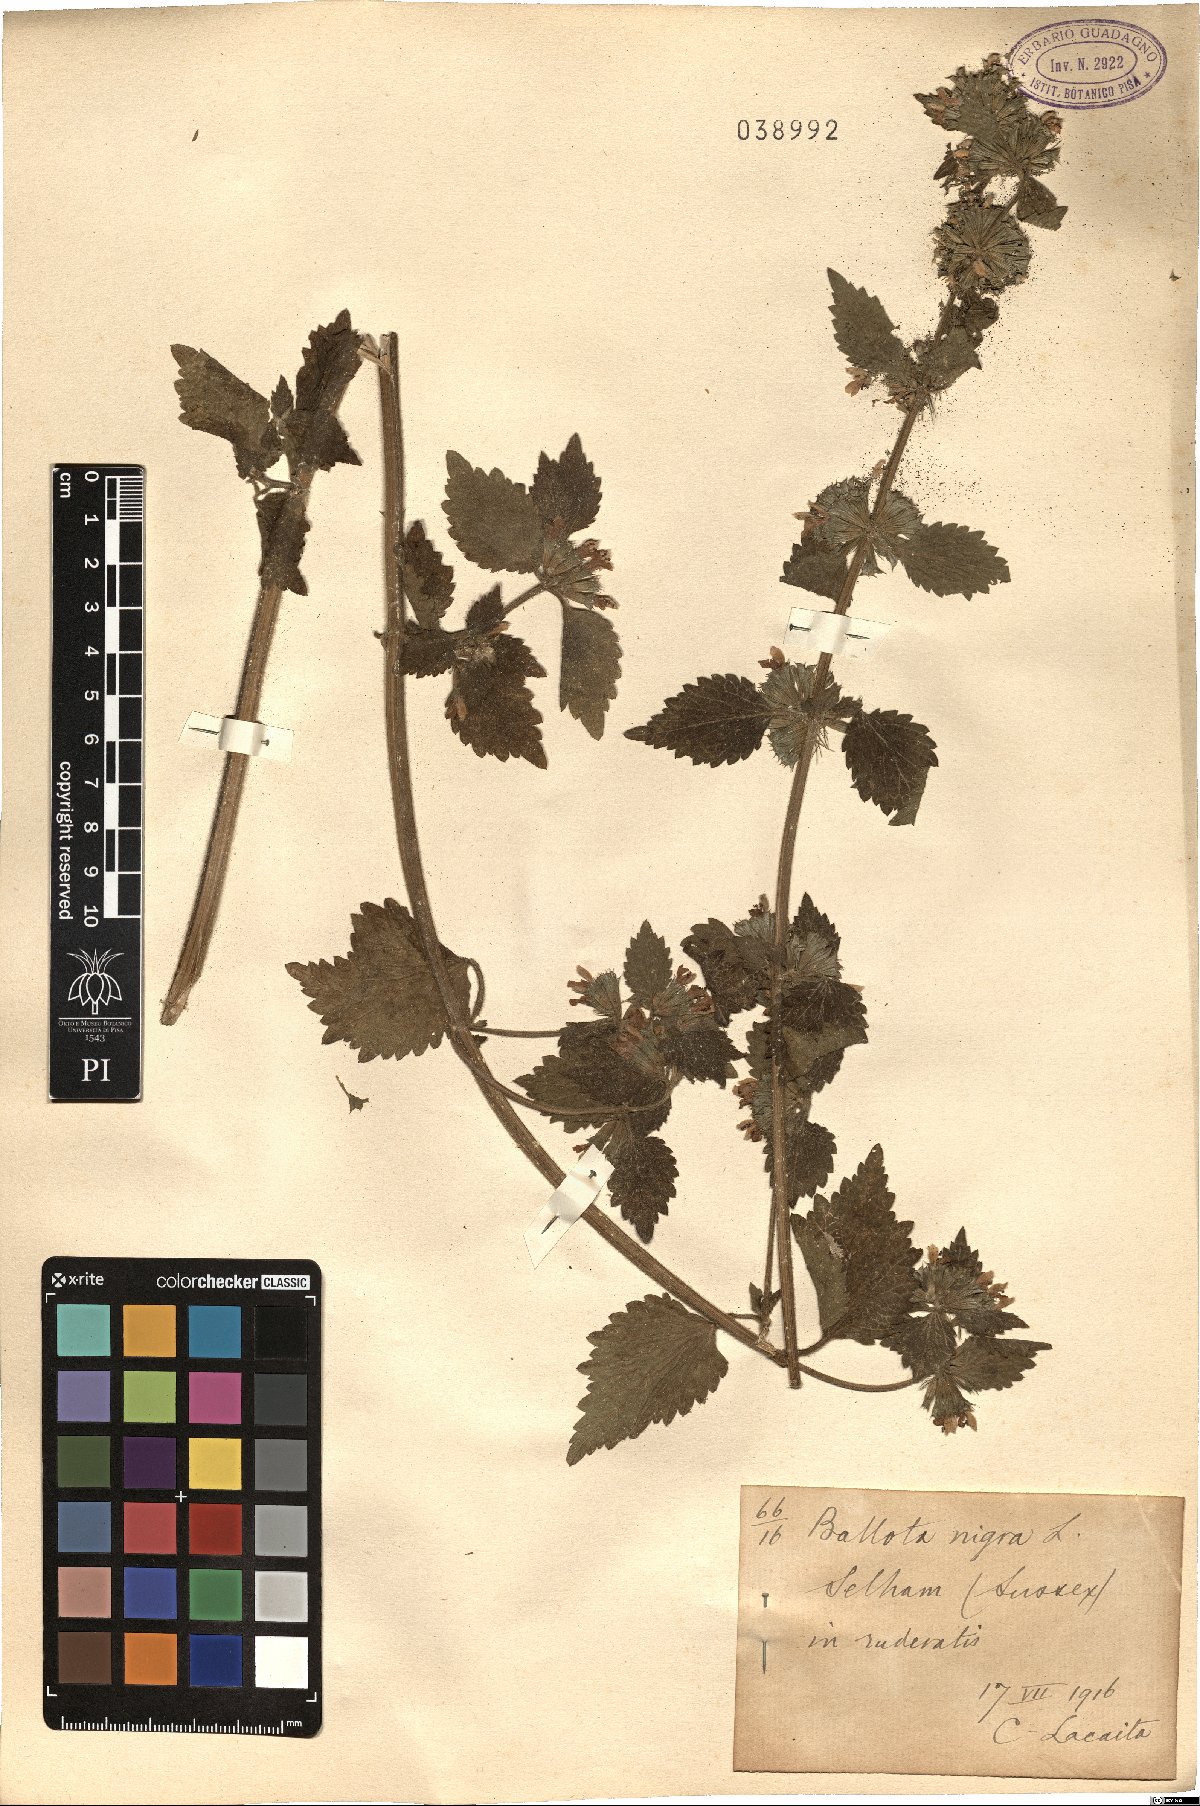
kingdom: Plantae
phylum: Tracheophyta
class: Magnoliopsida
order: Lamiales
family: Lamiaceae
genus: Ballota
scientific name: Ballota nigra
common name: Black horehound
